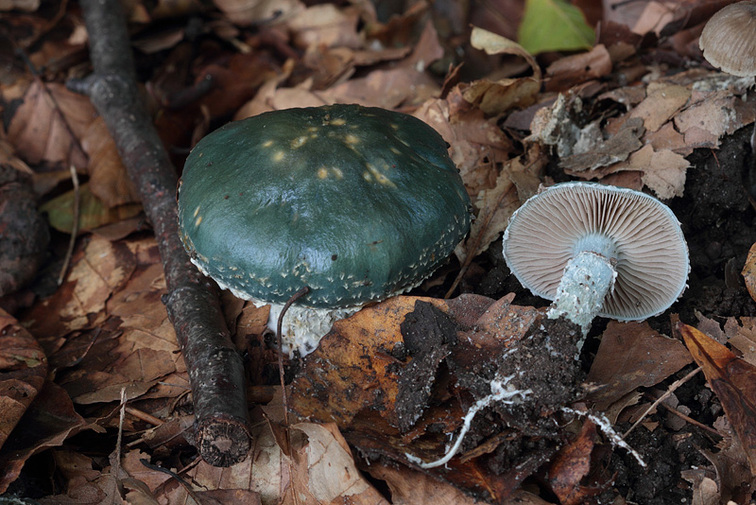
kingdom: Fungi
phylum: Basidiomycota
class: Agaricomycetes
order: Agaricales
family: Strophariaceae
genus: Stropharia
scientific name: Stropharia aeruginosa
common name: spanskgrøn bredblad
